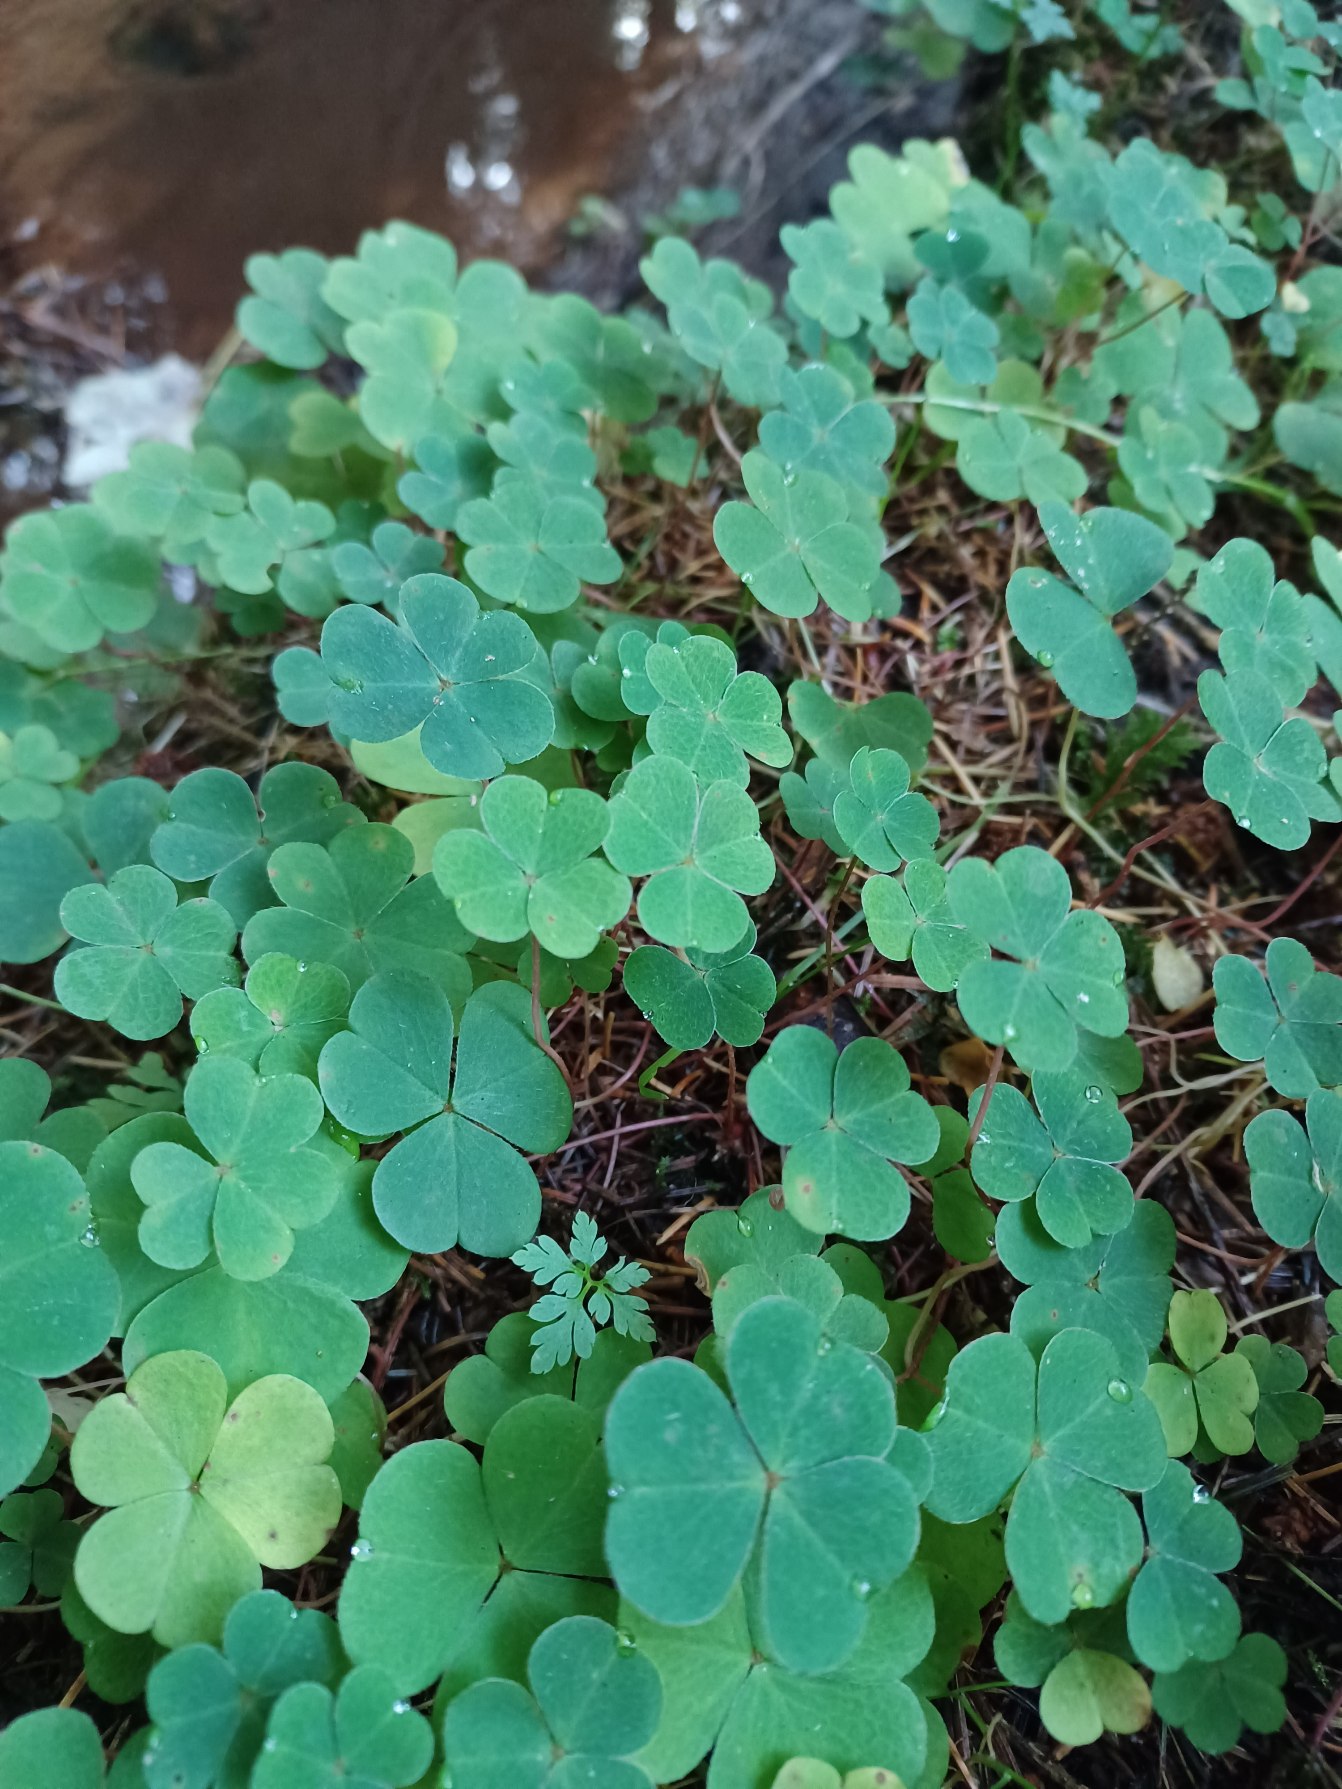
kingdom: Plantae
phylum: Tracheophyta
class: Magnoliopsida
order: Oxalidales
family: Oxalidaceae
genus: Oxalis
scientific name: Oxalis acetosella
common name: Skovsyre
